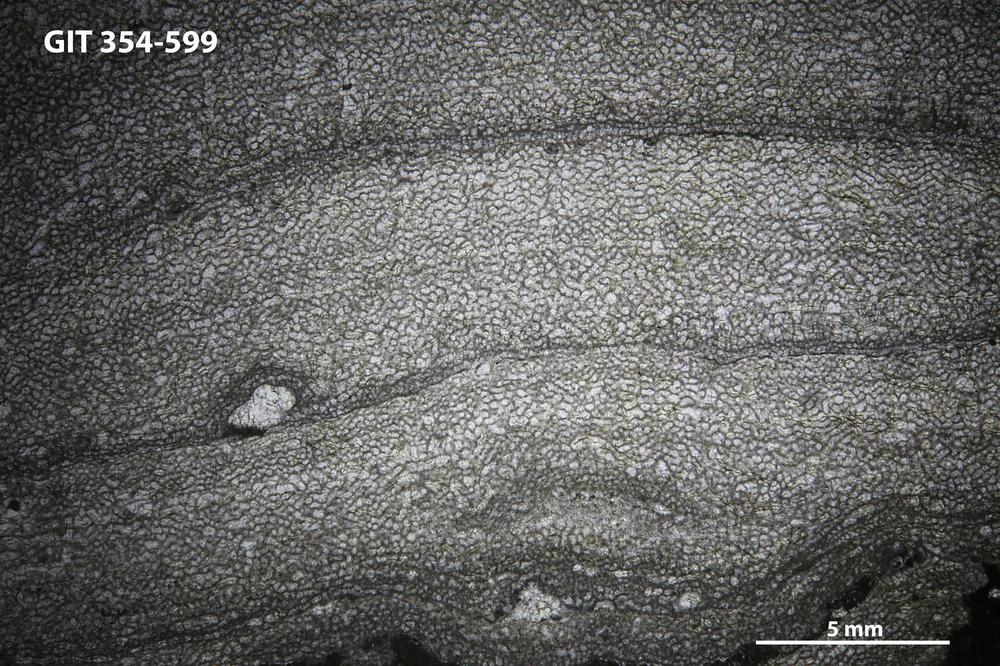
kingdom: Animalia
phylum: Porifera
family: Ecclimadictyidae
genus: Ecclimadictyon
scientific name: Ecclimadictyon
